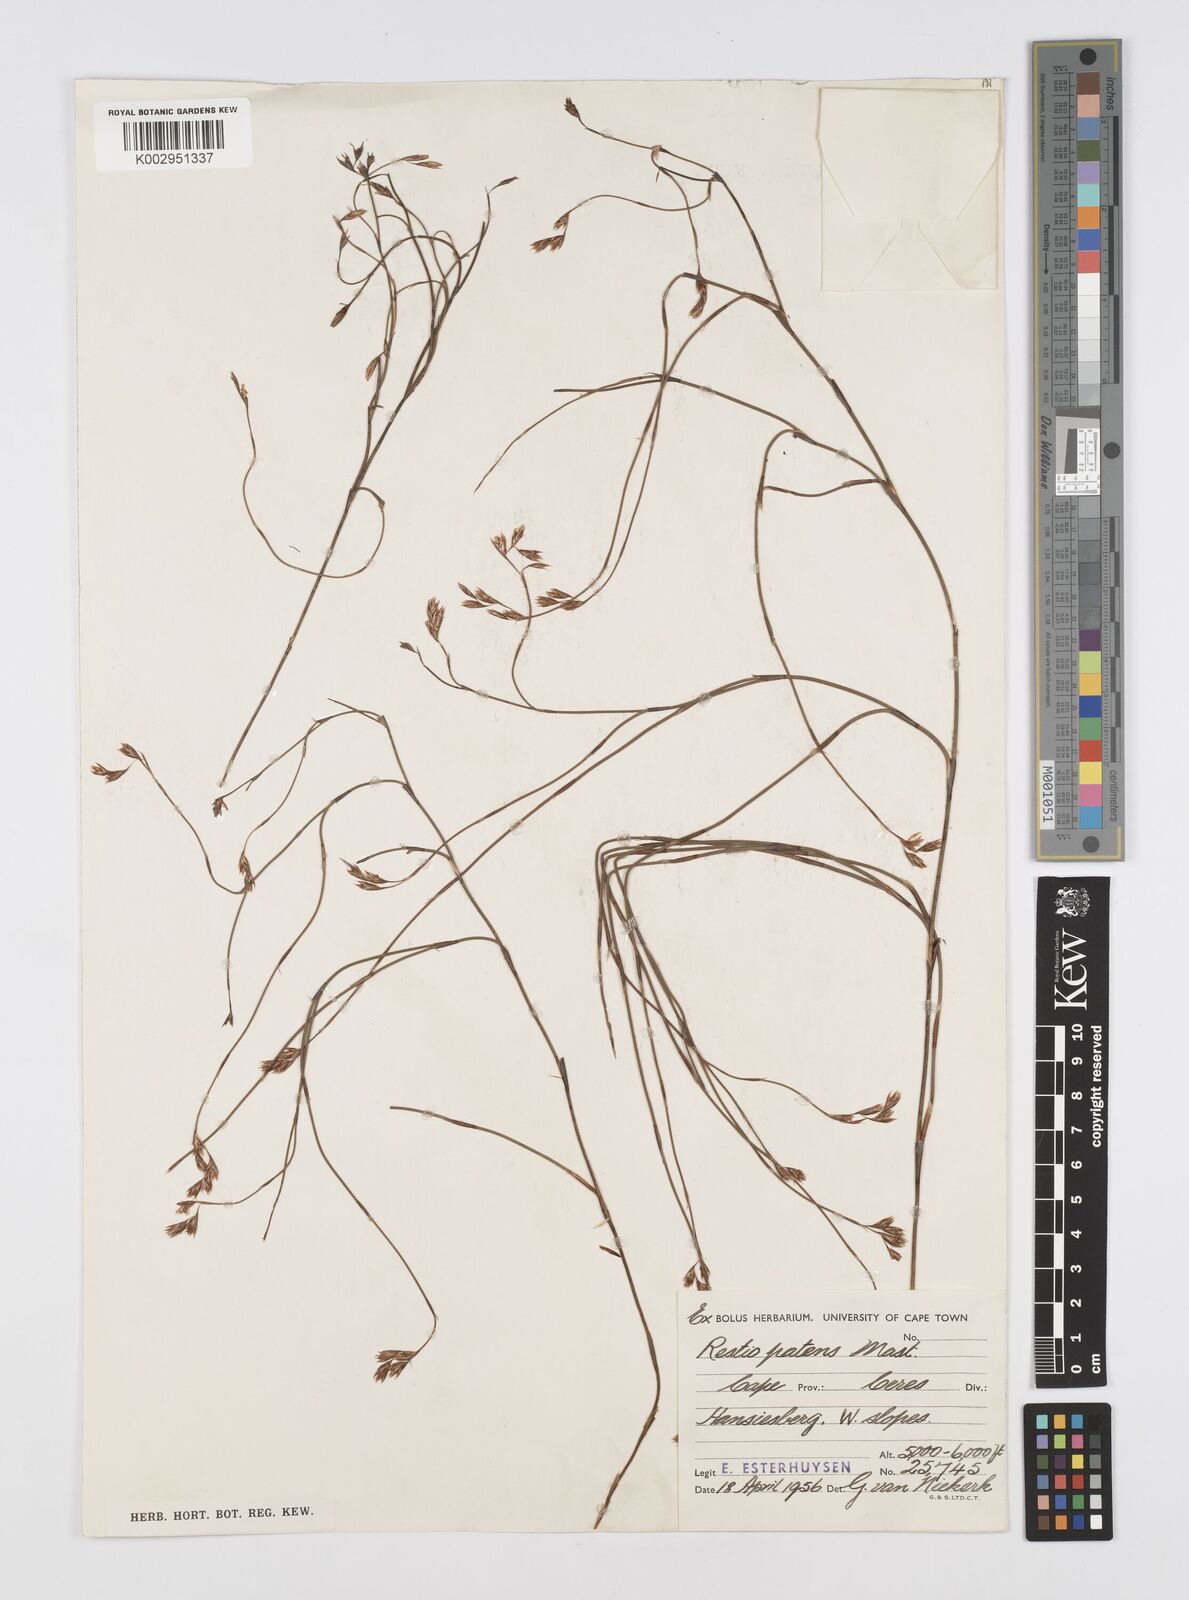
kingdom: Plantae
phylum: Tracheophyta
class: Liliopsida
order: Poales
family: Restionaceae
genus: Restio
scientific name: Restio patens
